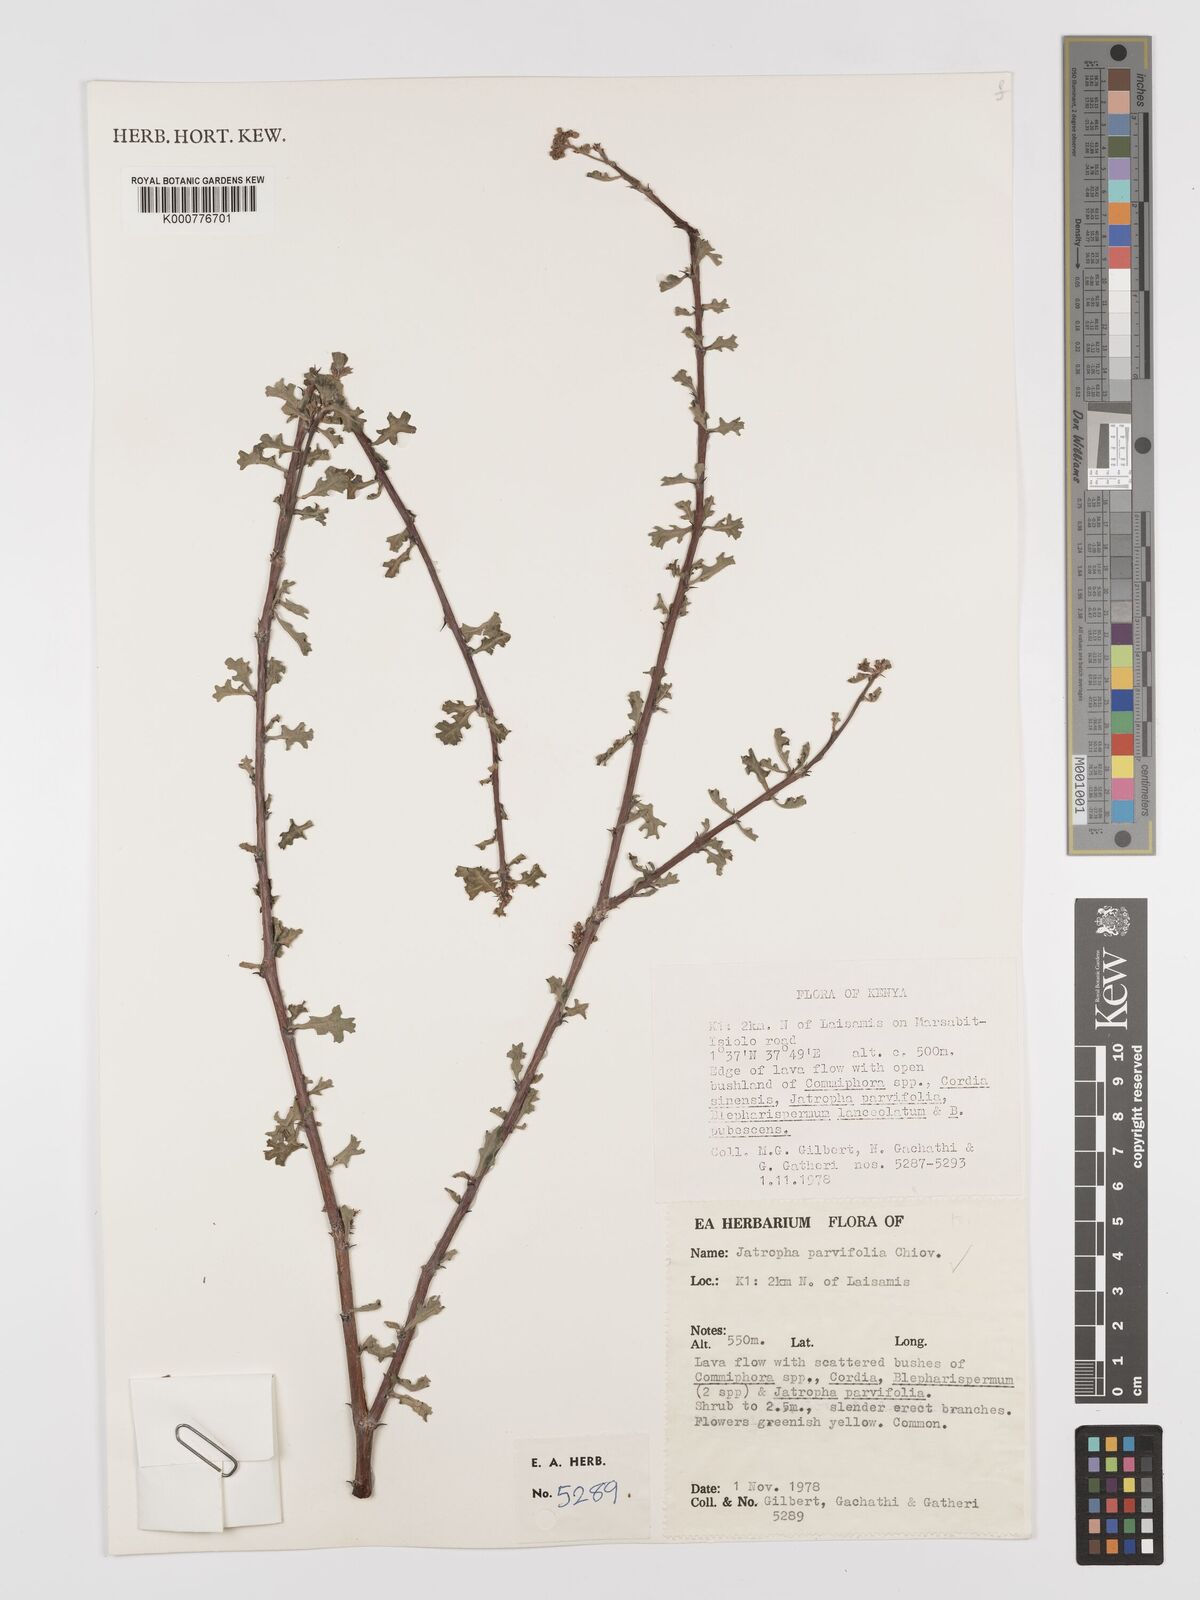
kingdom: Plantae
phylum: Tracheophyta
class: Magnoliopsida
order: Malpighiales
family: Euphorbiaceae
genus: Jatropha
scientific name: Jatropha rivae
